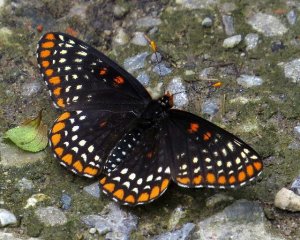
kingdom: Animalia
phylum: Arthropoda
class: Insecta
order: Lepidoptera
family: Nymphalidae
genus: Euphydryas
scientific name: Euphydryas phaeton
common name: Baltimore Checkerspot
